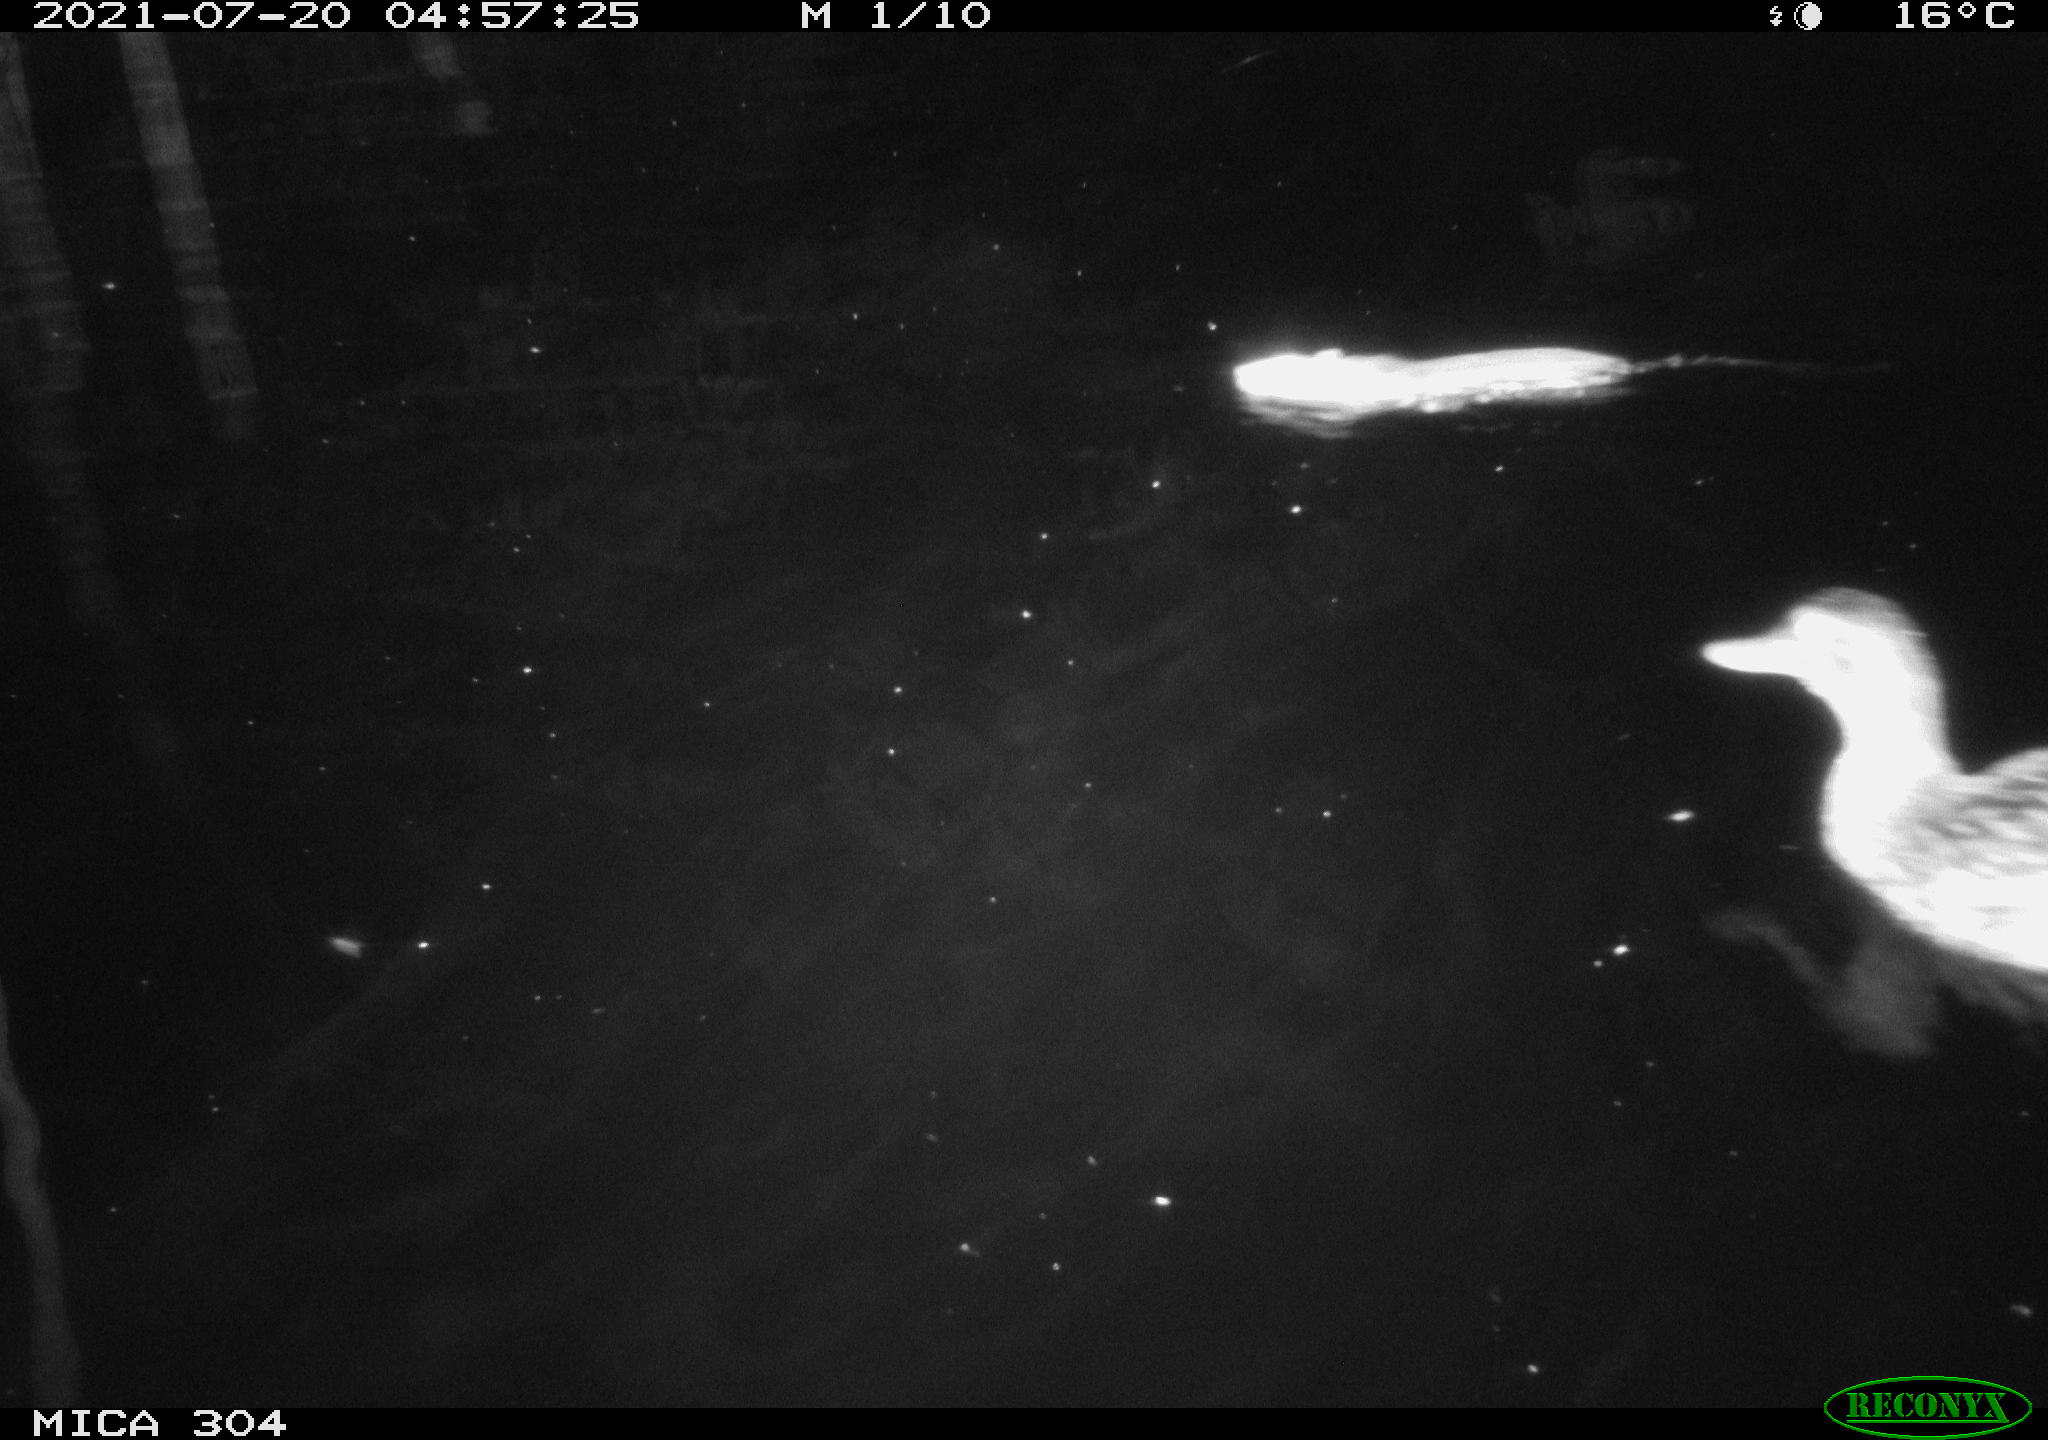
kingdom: Animalia
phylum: Chordata
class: Aves
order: Anseriformes
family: Anatidae
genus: Mareca
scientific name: Mareca strepera
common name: Gadwall
